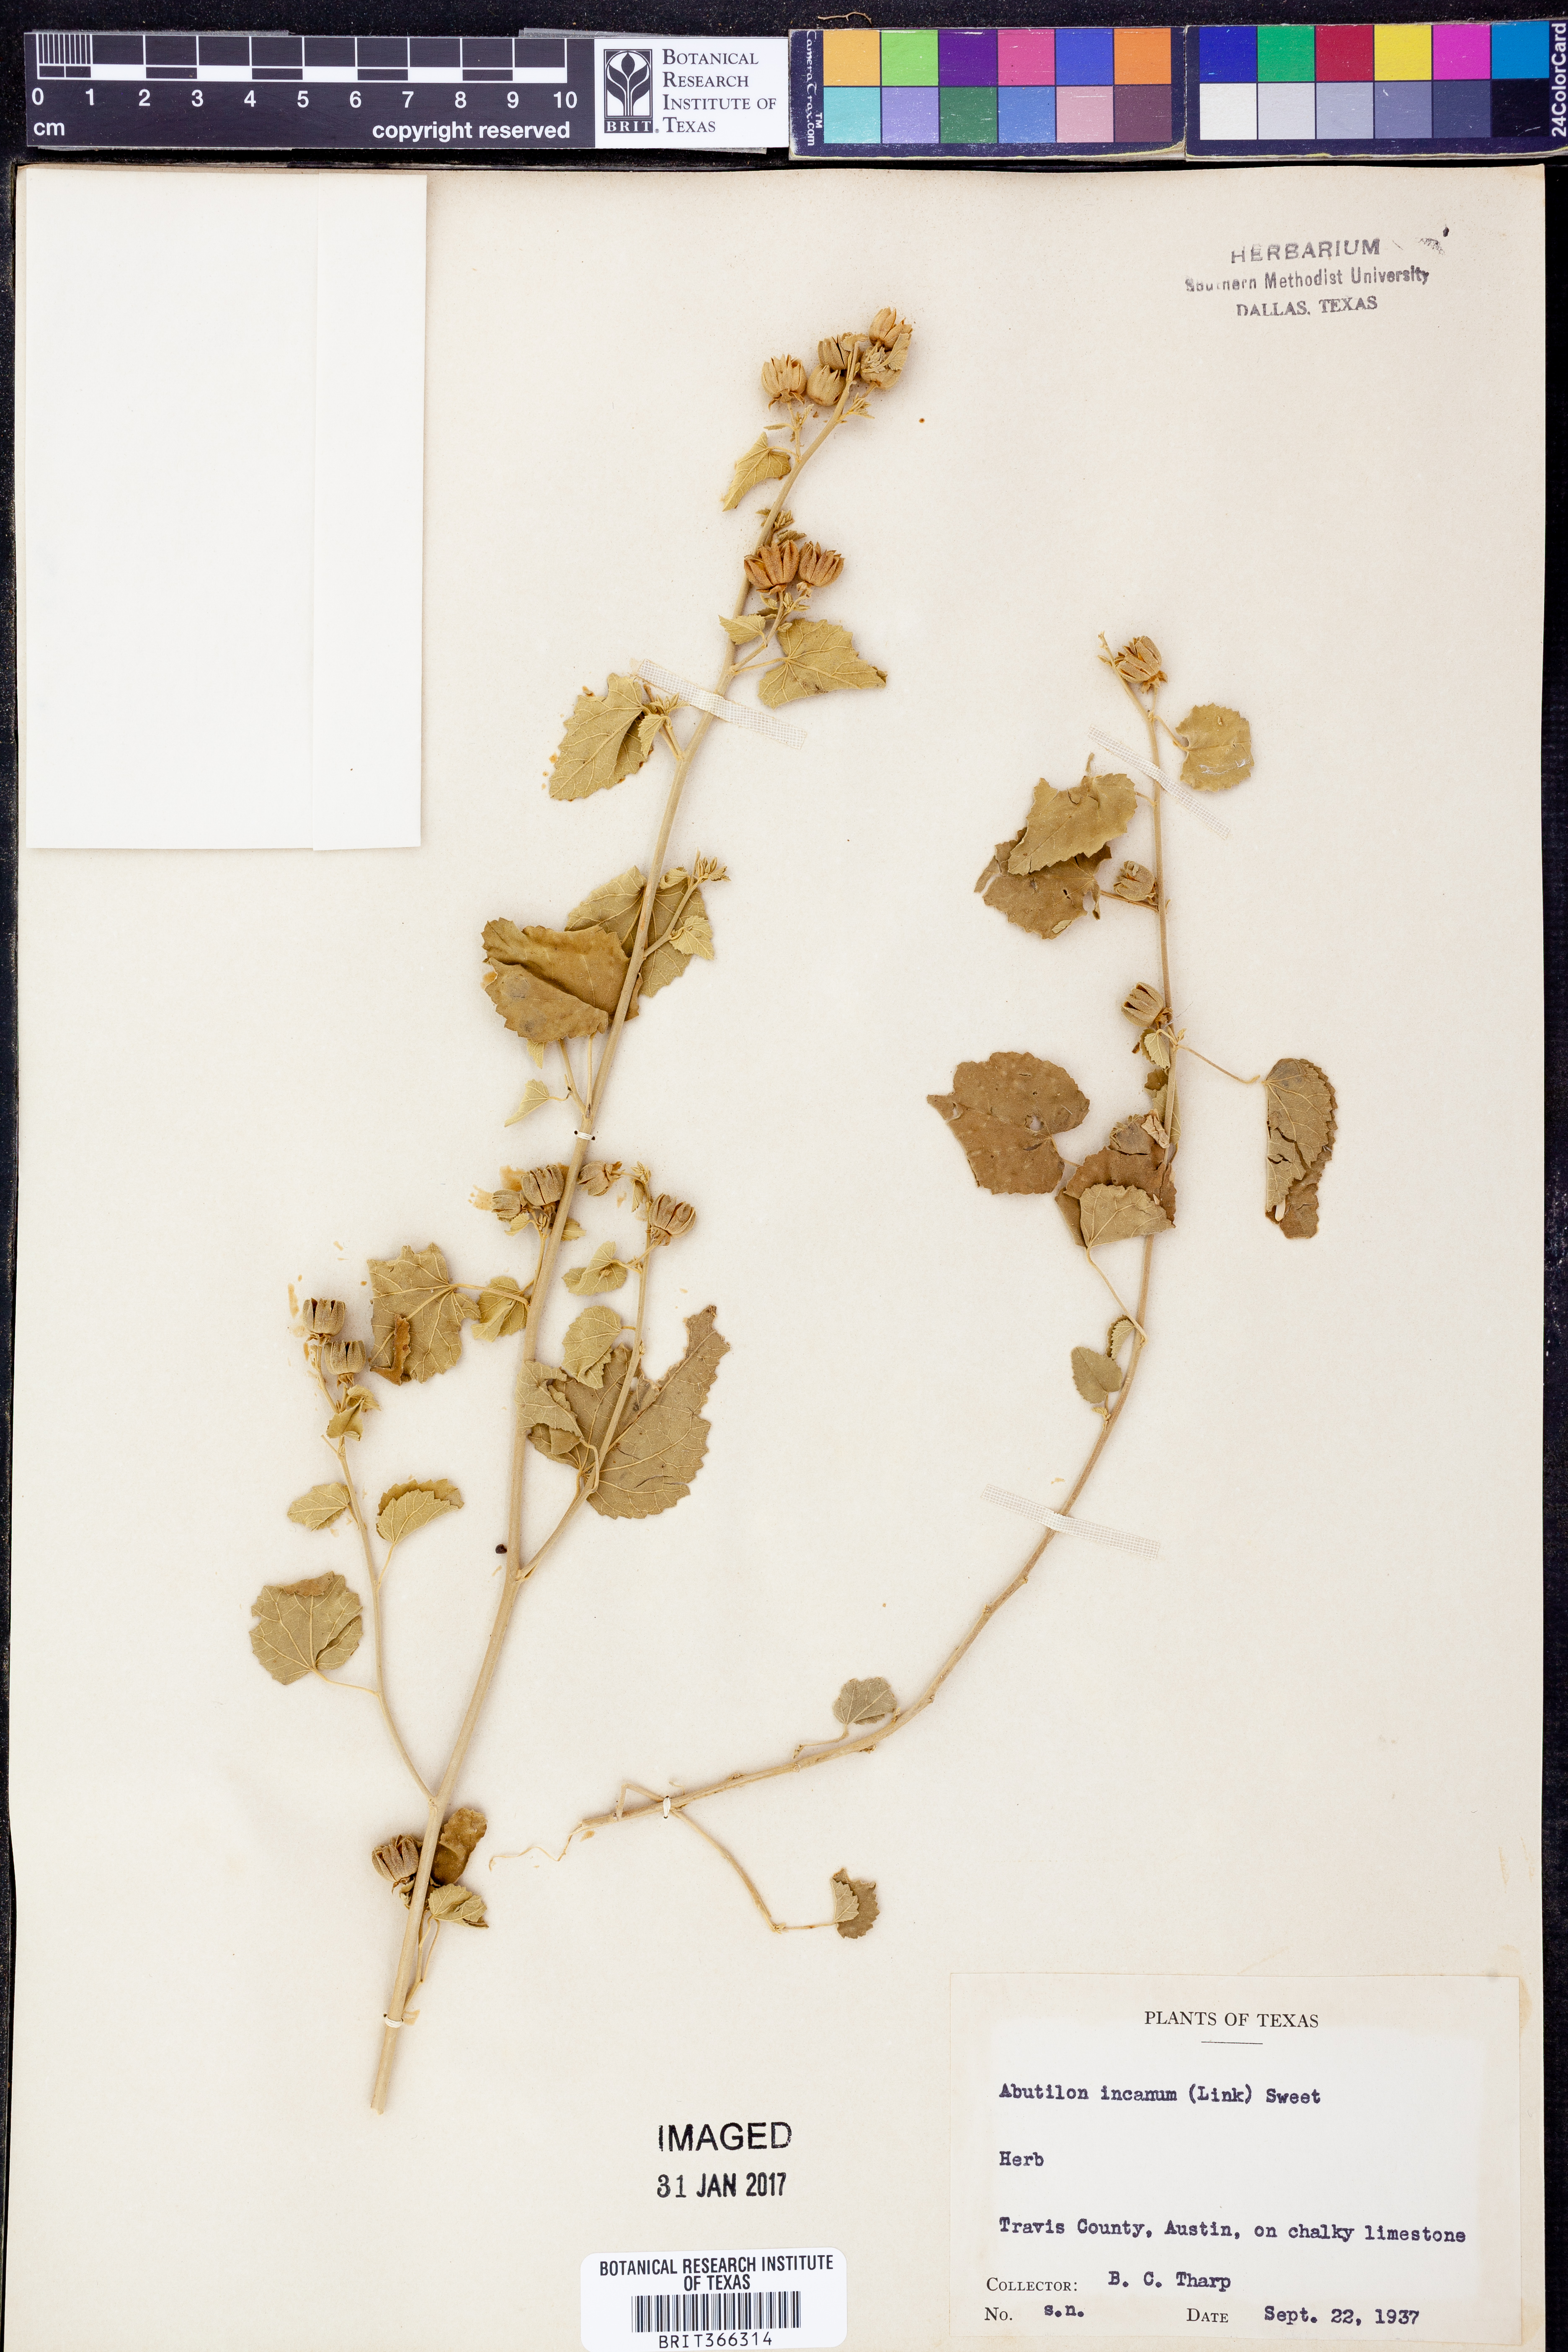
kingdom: Plantae
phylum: Tracheophyta
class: Magnoliopsida
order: Malvales
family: Malvaceae
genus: Abutilon
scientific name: Abutilon incanum
